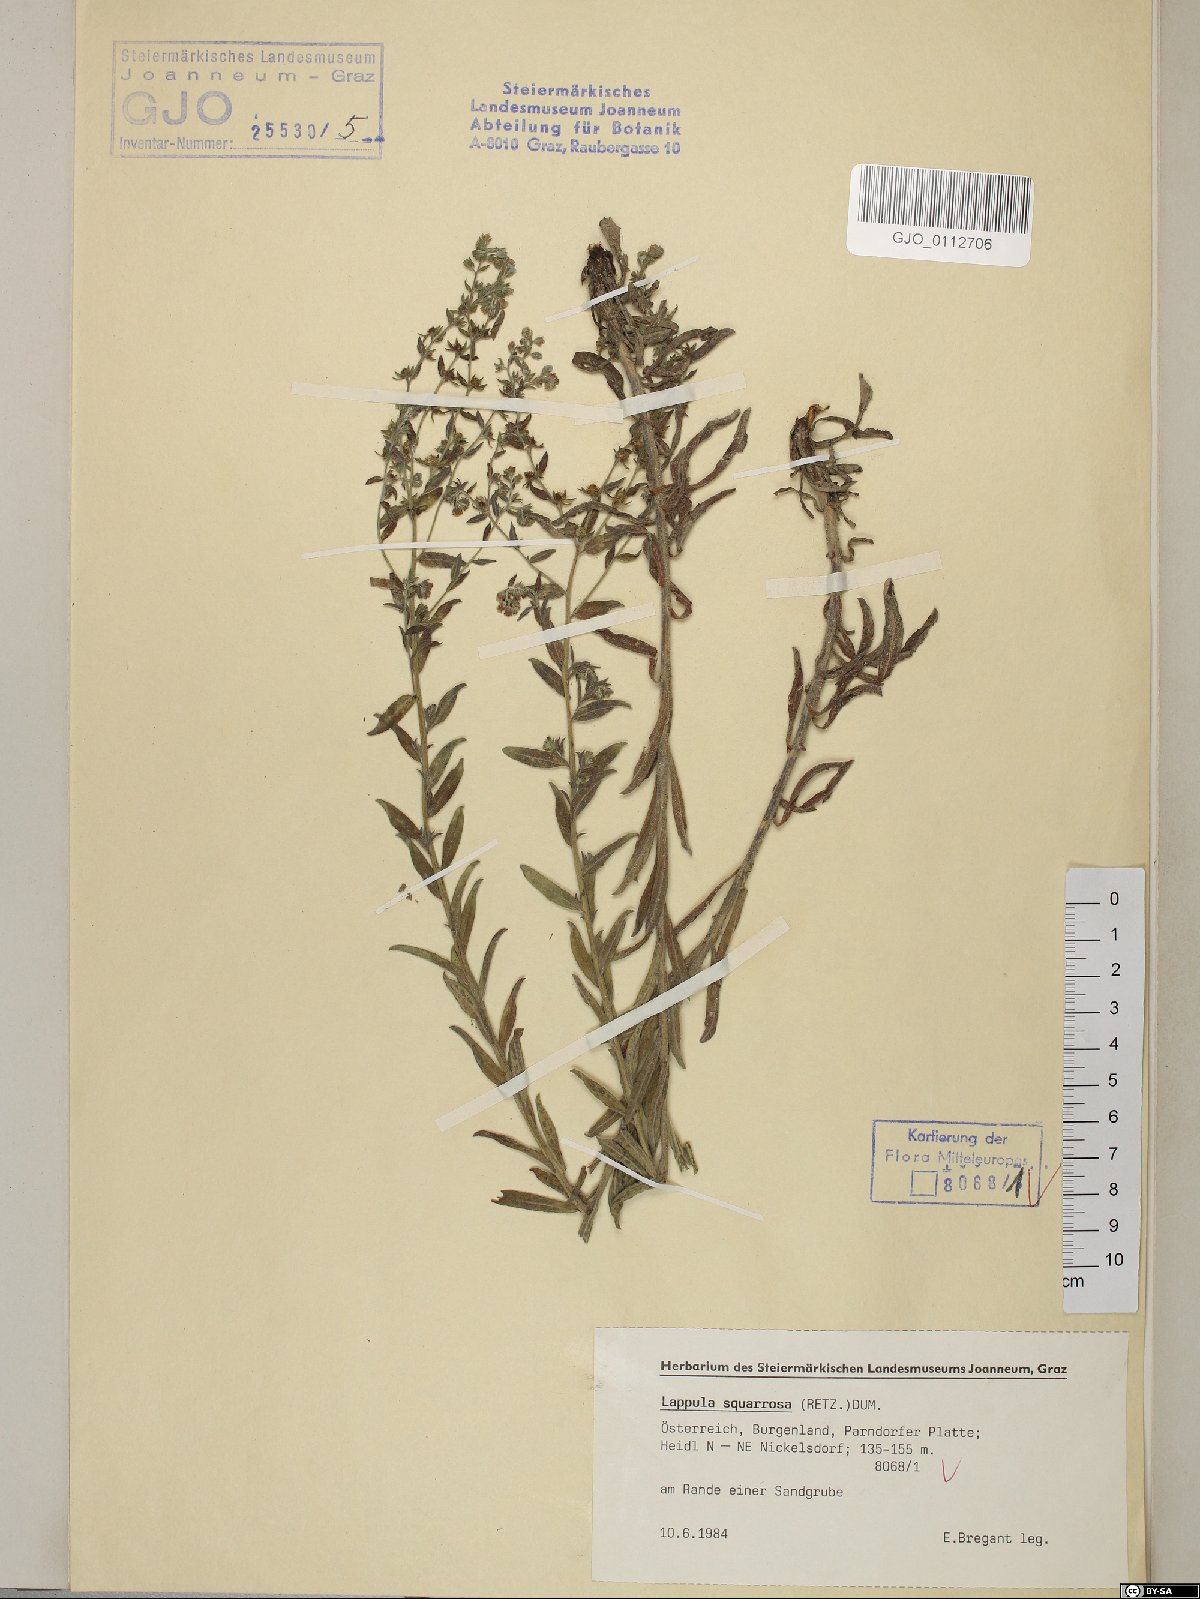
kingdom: Plantae
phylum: Tracheophyta
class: Magnoliopsida
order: Boraginales
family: Boraginaceae
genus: Lappula
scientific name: Lappula squarrosa
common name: European stickseed
